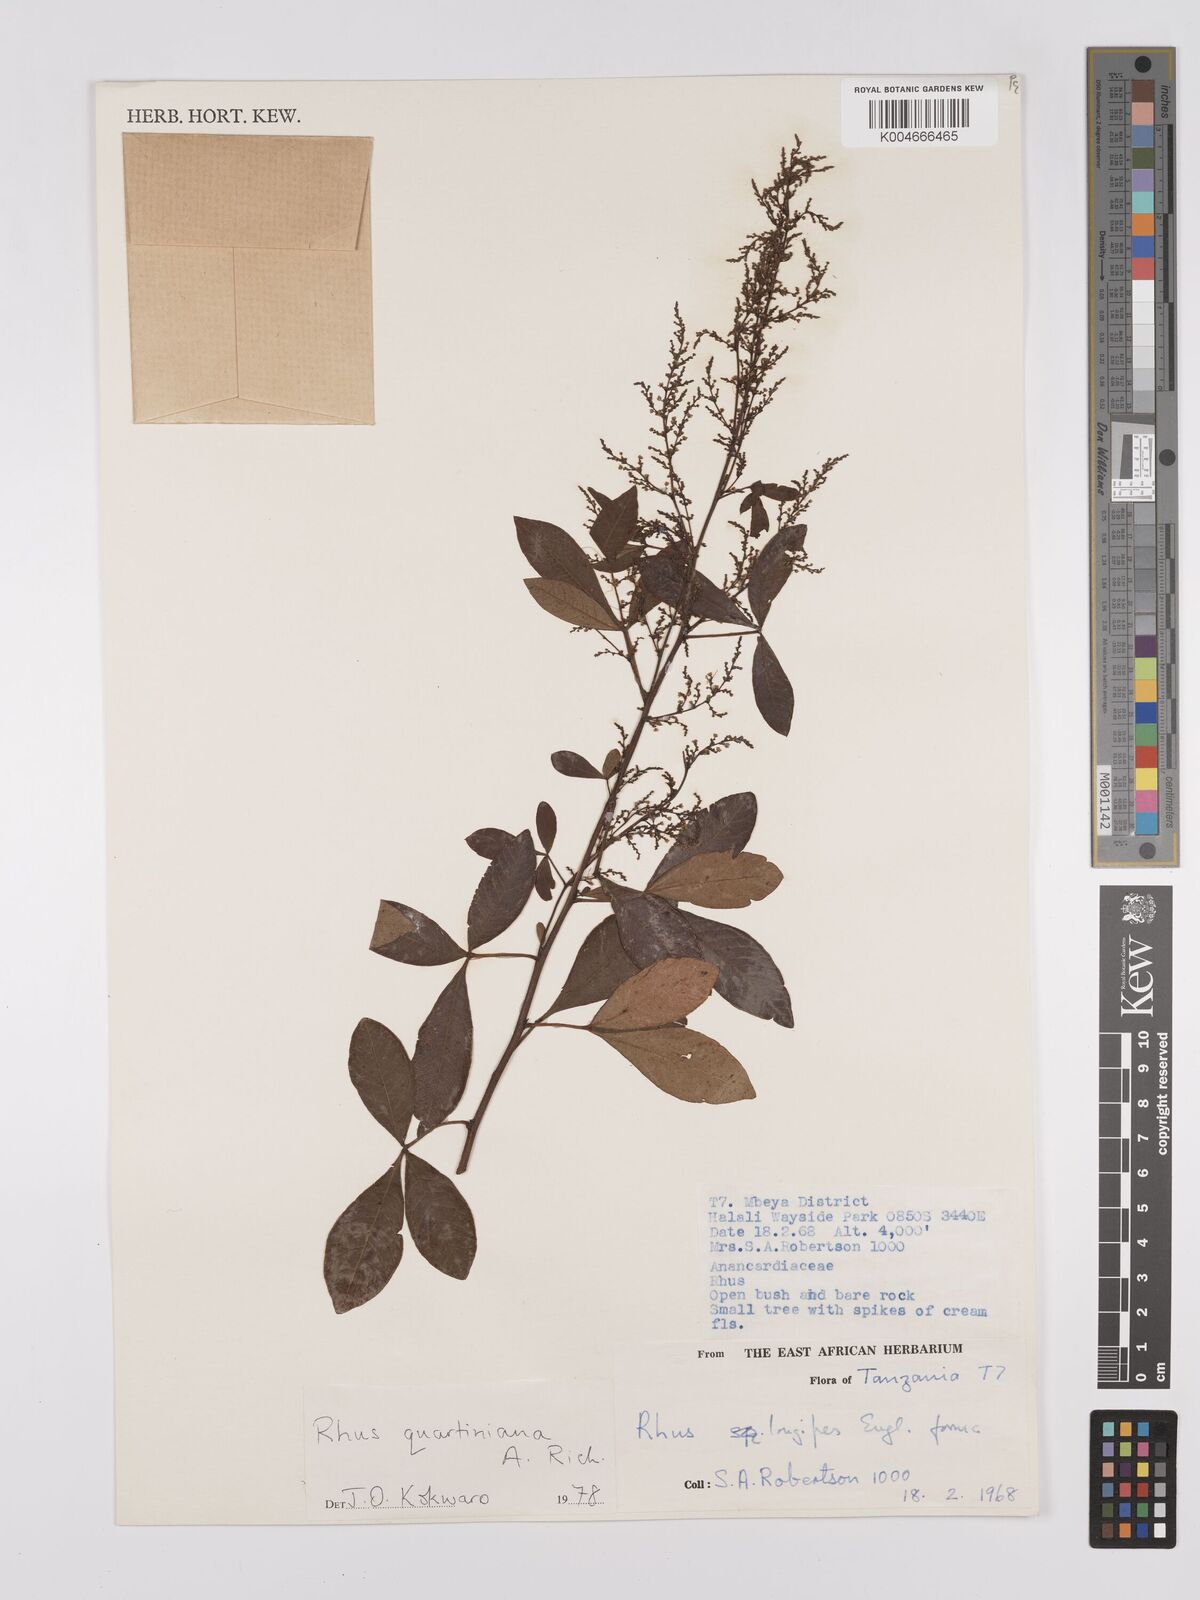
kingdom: Plantae
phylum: Tracheophyta
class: Magnoliopsida
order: Sapindales
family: Anacardiaceae
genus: Searsia
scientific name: Searsia quartiniana
